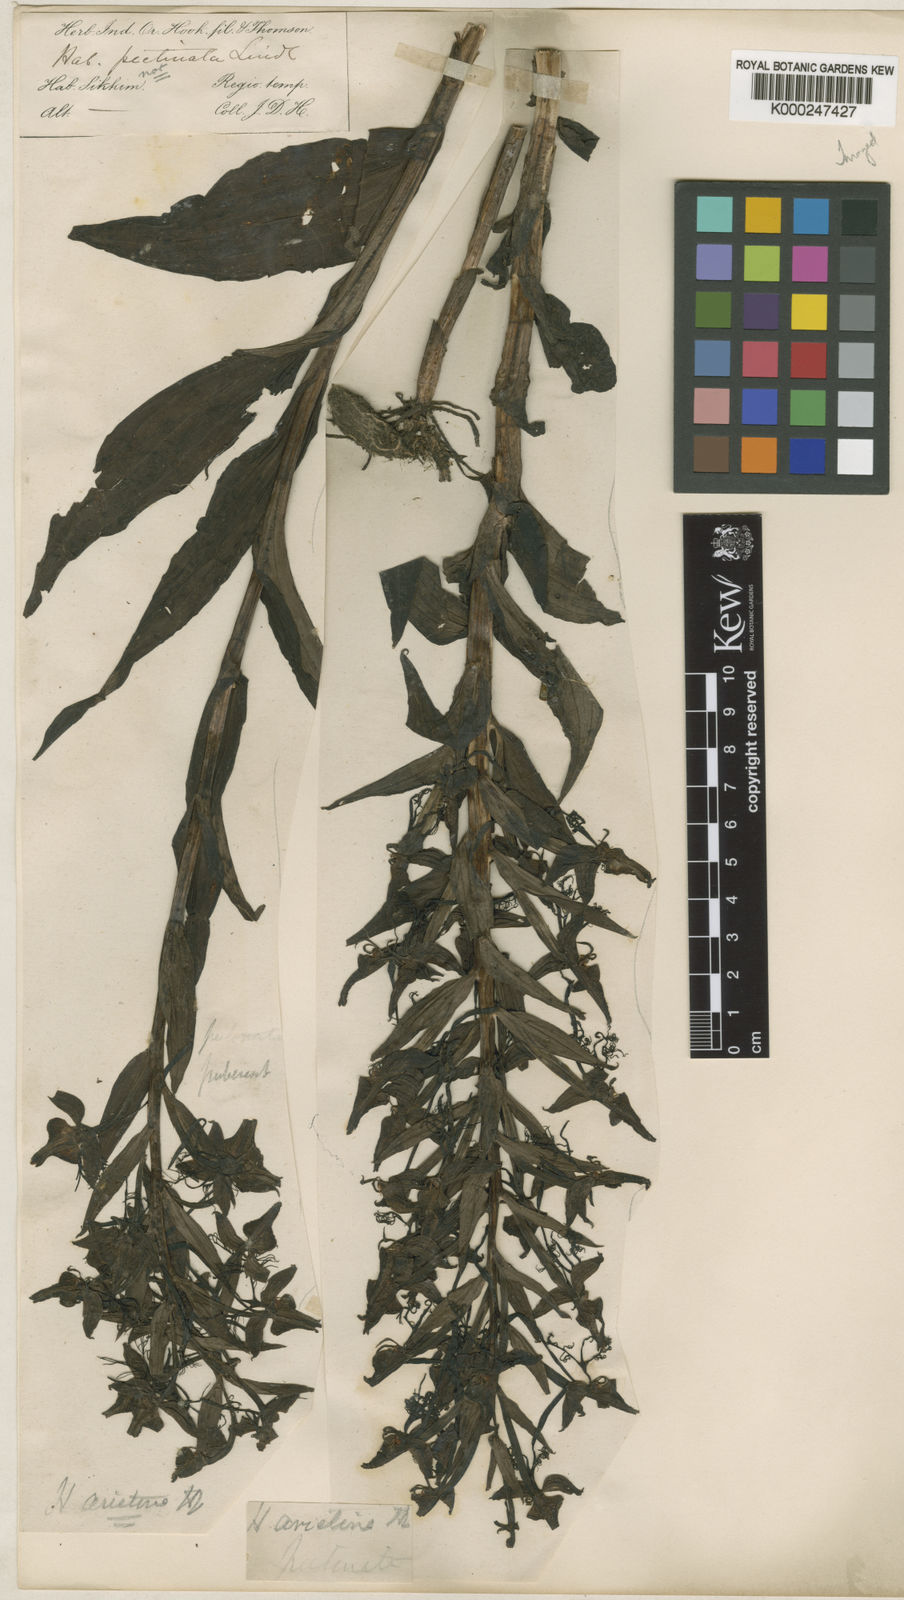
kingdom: Plantae
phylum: Tracheophyta
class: Liliopsida
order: Asparagales
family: Orchidaceae
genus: Habenaria
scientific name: Habenaria pectinata
